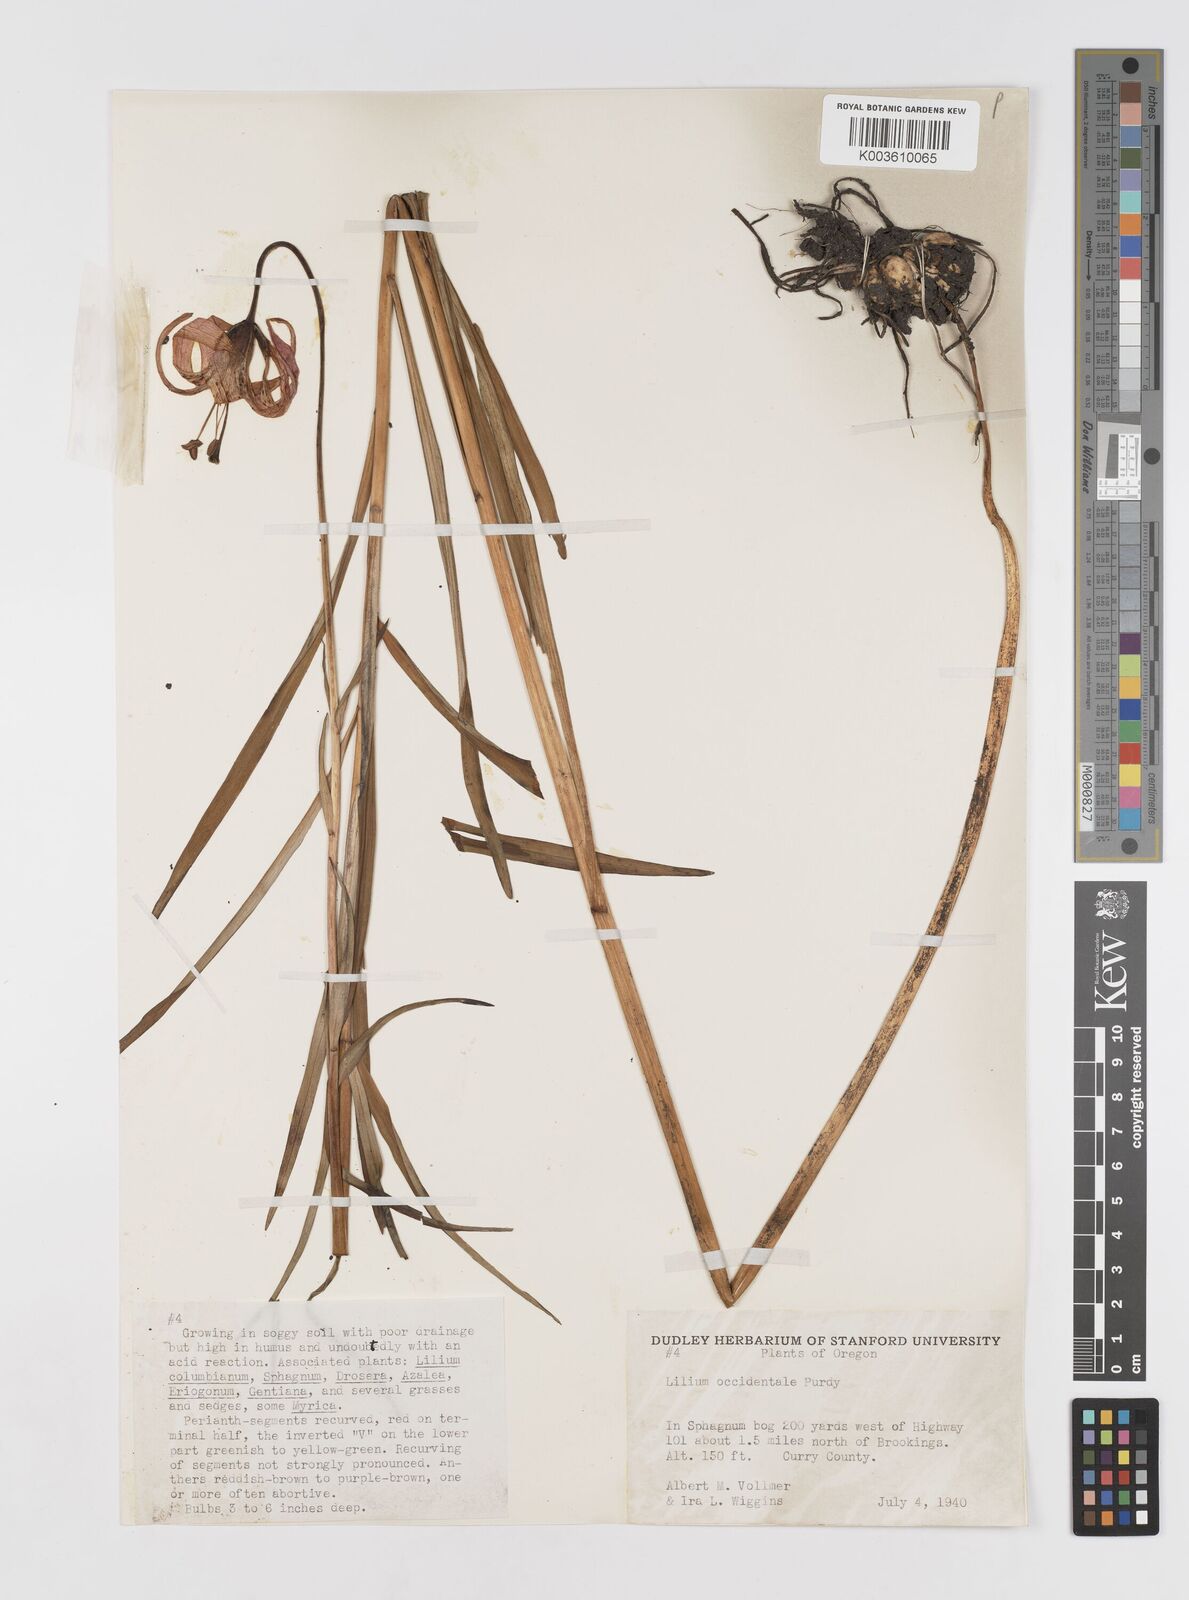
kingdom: Plantae
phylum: Tracheophyta
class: Liliopsida
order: Liliales
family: Liliaceae
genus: Lilium
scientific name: Lilium occidentale
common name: Eureka lily
